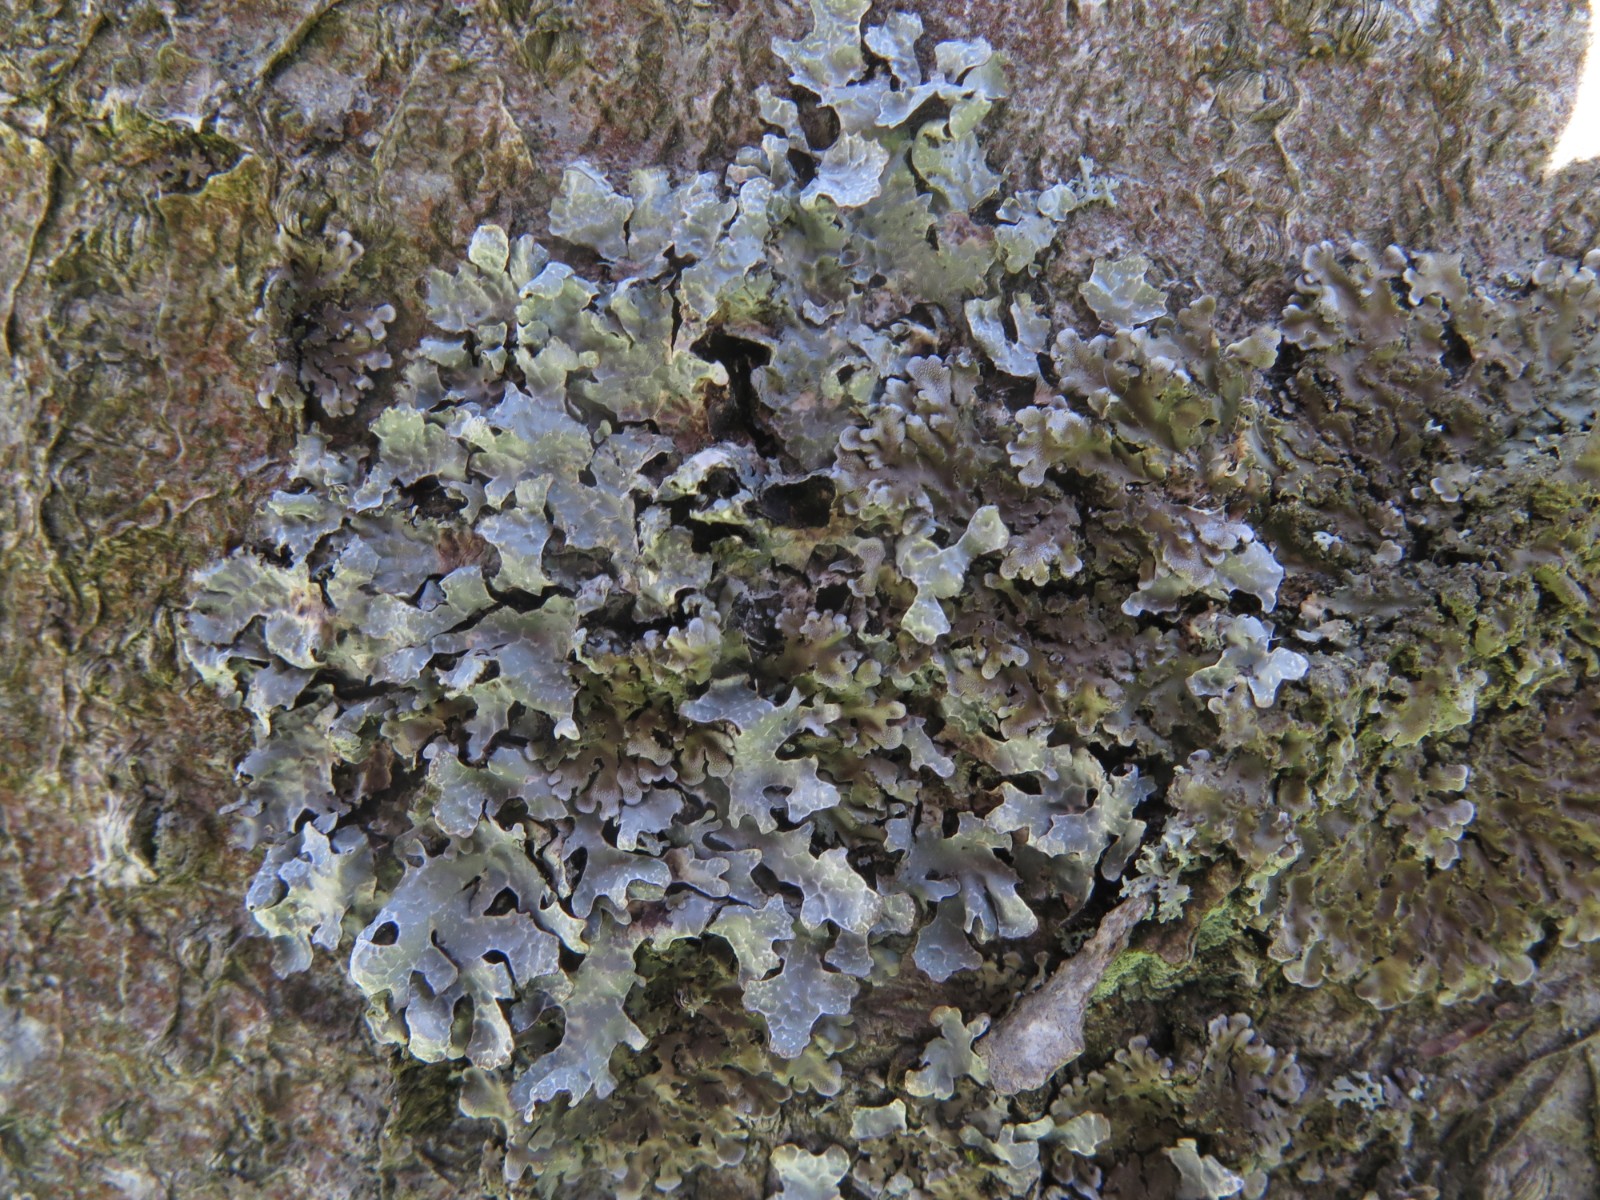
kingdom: Fungi
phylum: Ascomycota
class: Lecanoromycetes
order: Lecanorales
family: Parmeliaceae
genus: Parmelia
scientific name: Parmelia sulcata
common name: rynket skållav
